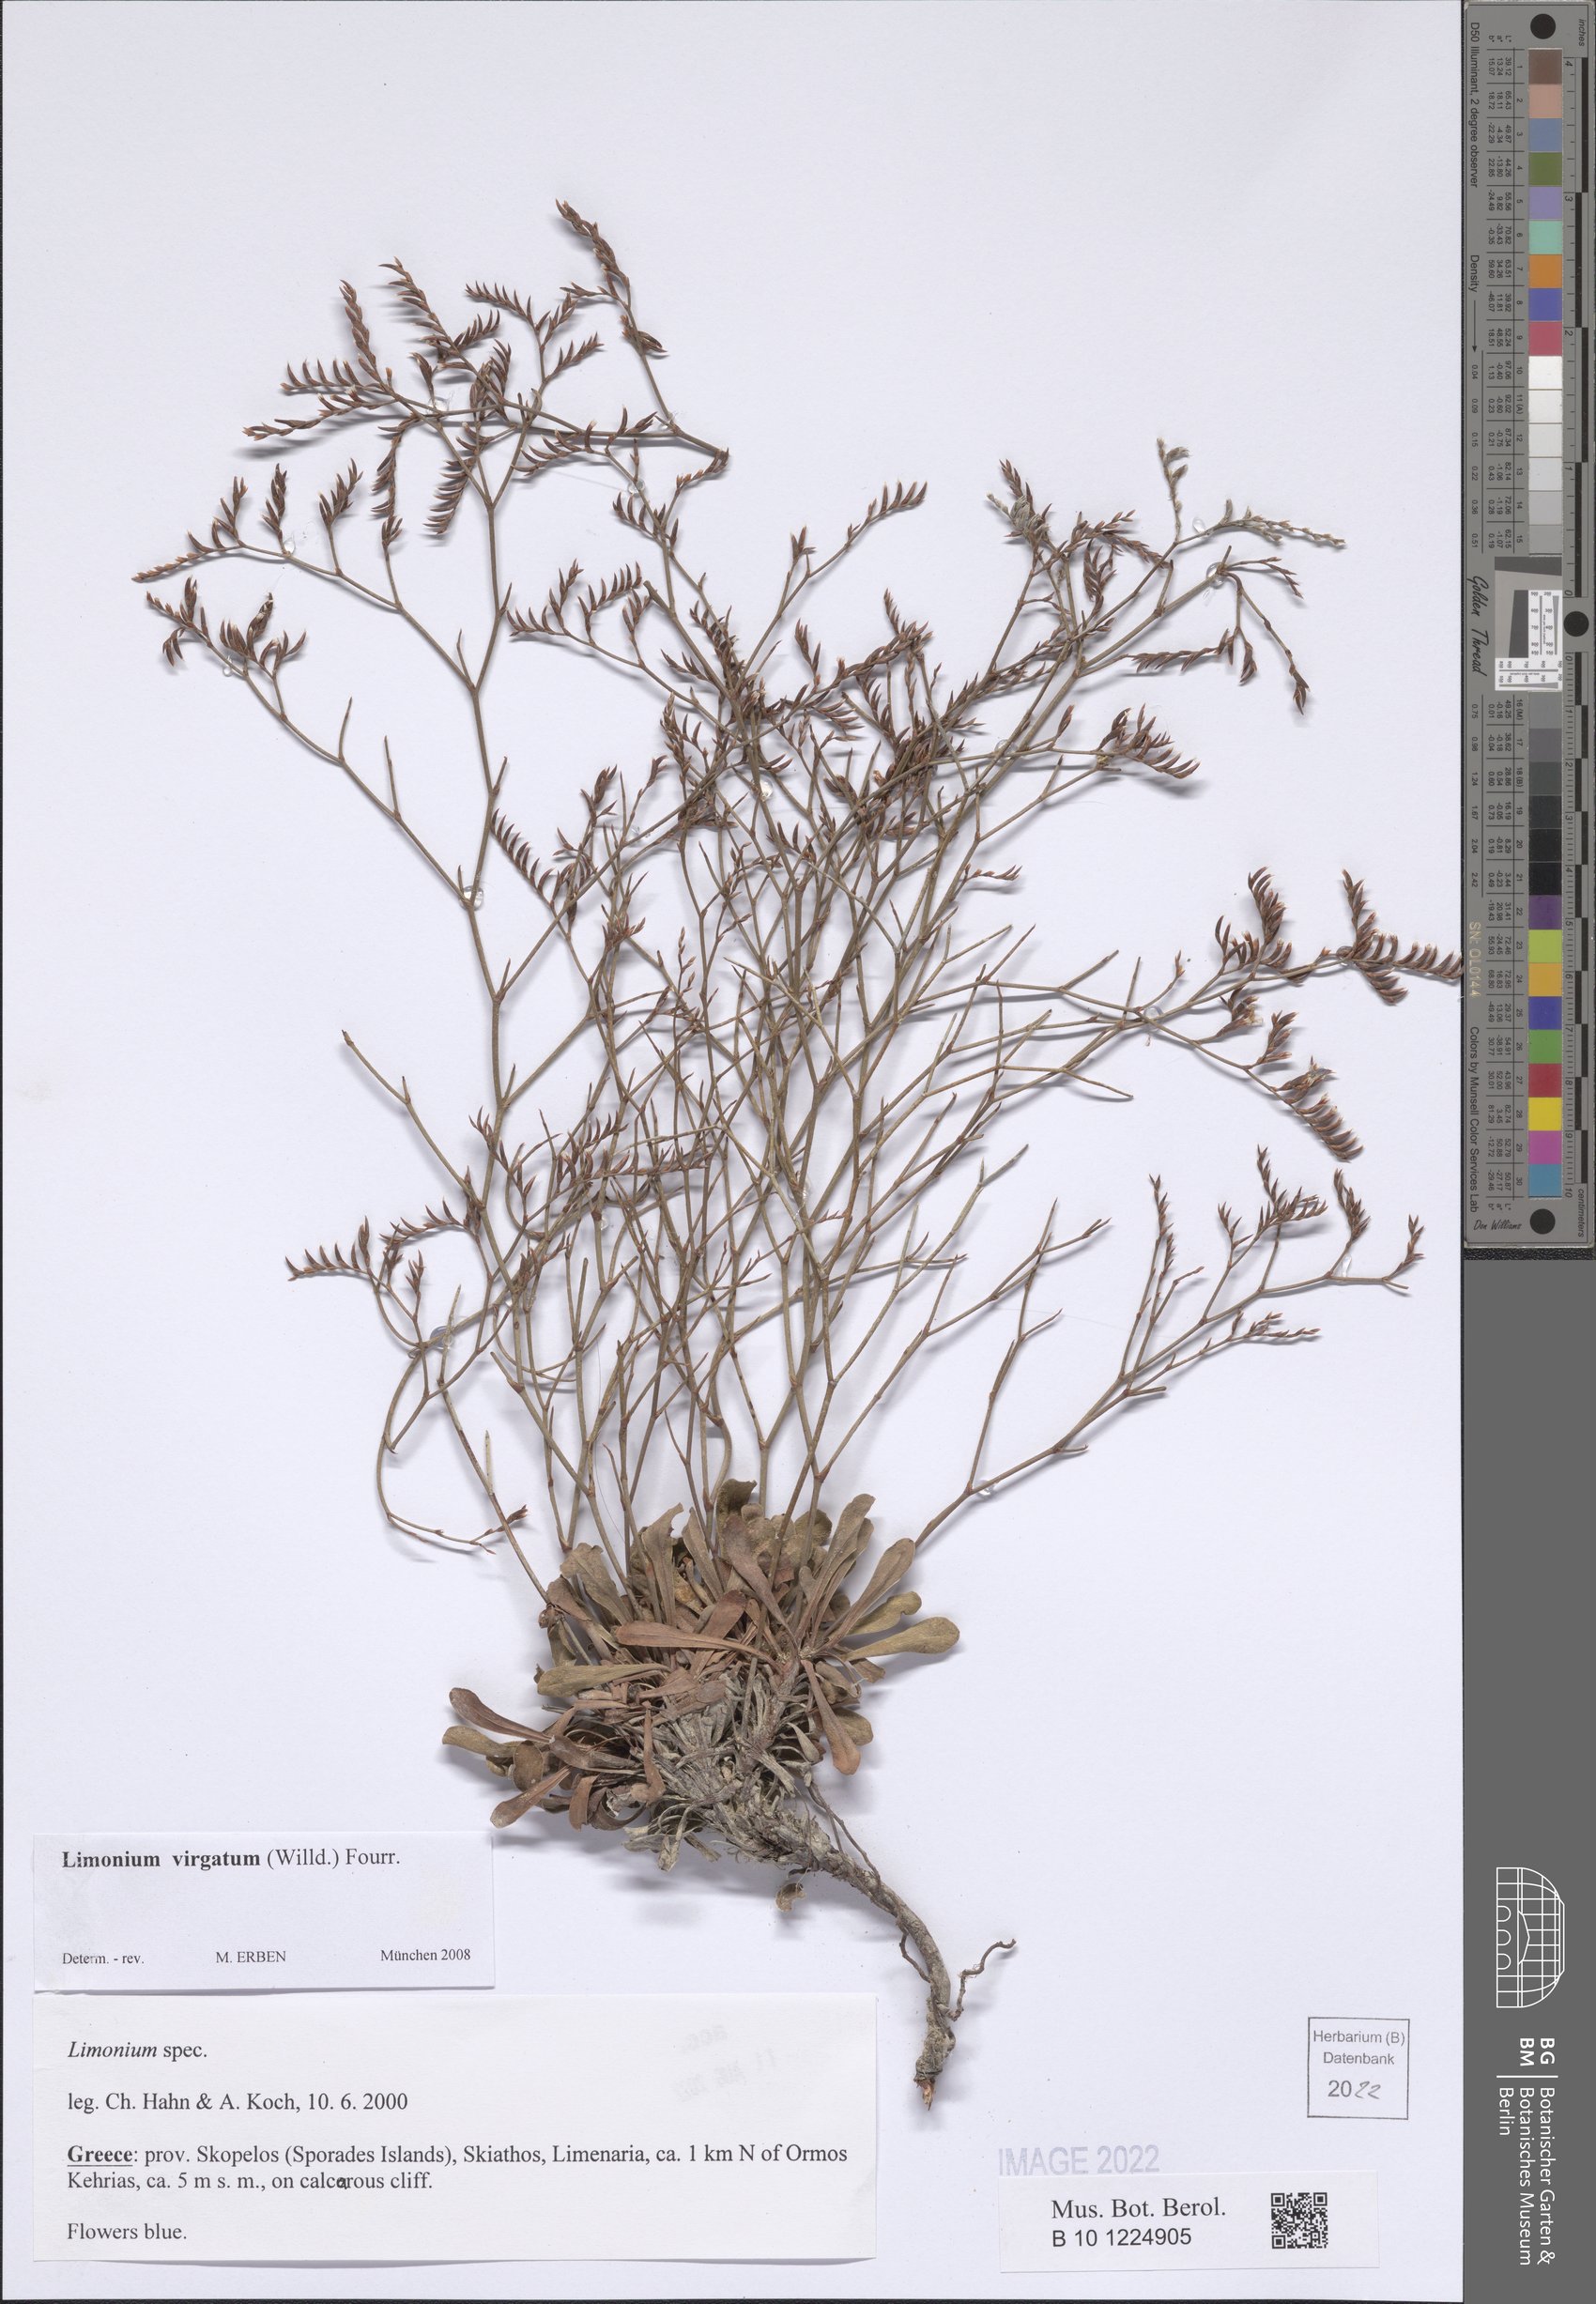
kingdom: Plantae
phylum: Tracheophyta
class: Magnoliopsida
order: Caryophyllales
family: Plumbaginaceae
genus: Limonium
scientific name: Limonium virgatum
